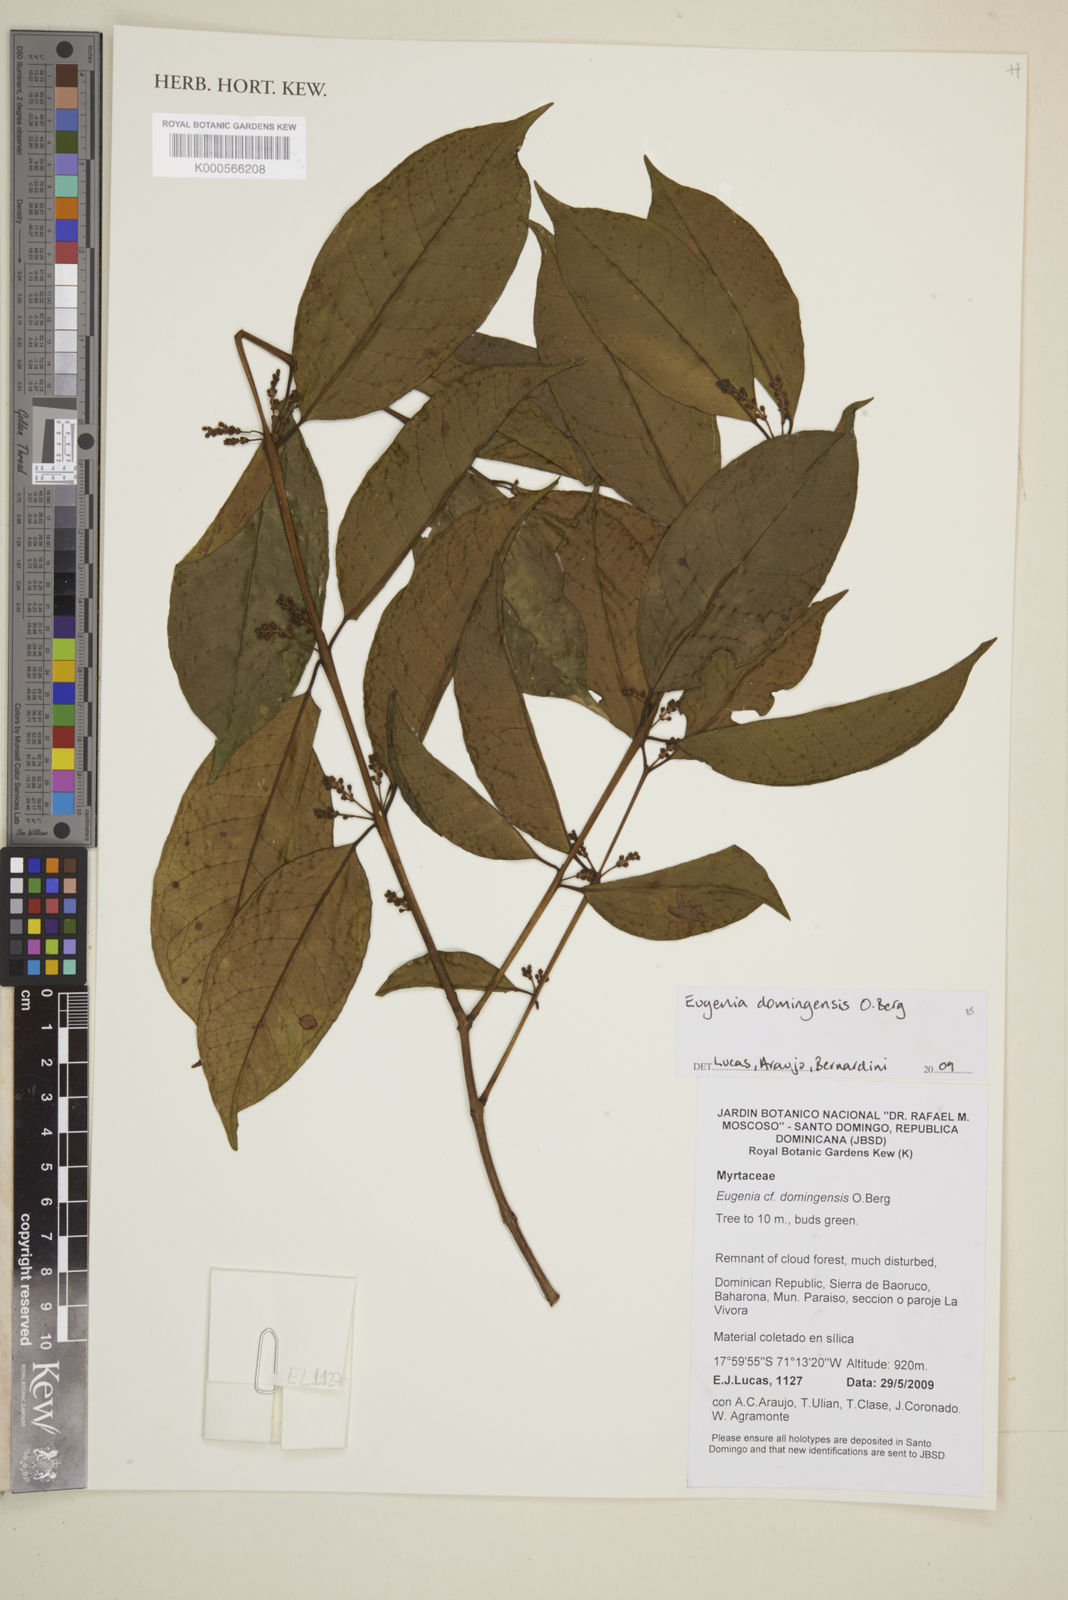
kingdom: Plantae
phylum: Tracheophyta
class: Magnoliopsida
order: Myrtales
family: Myrtaceae
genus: Eugenia
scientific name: Eugenia domingensis
